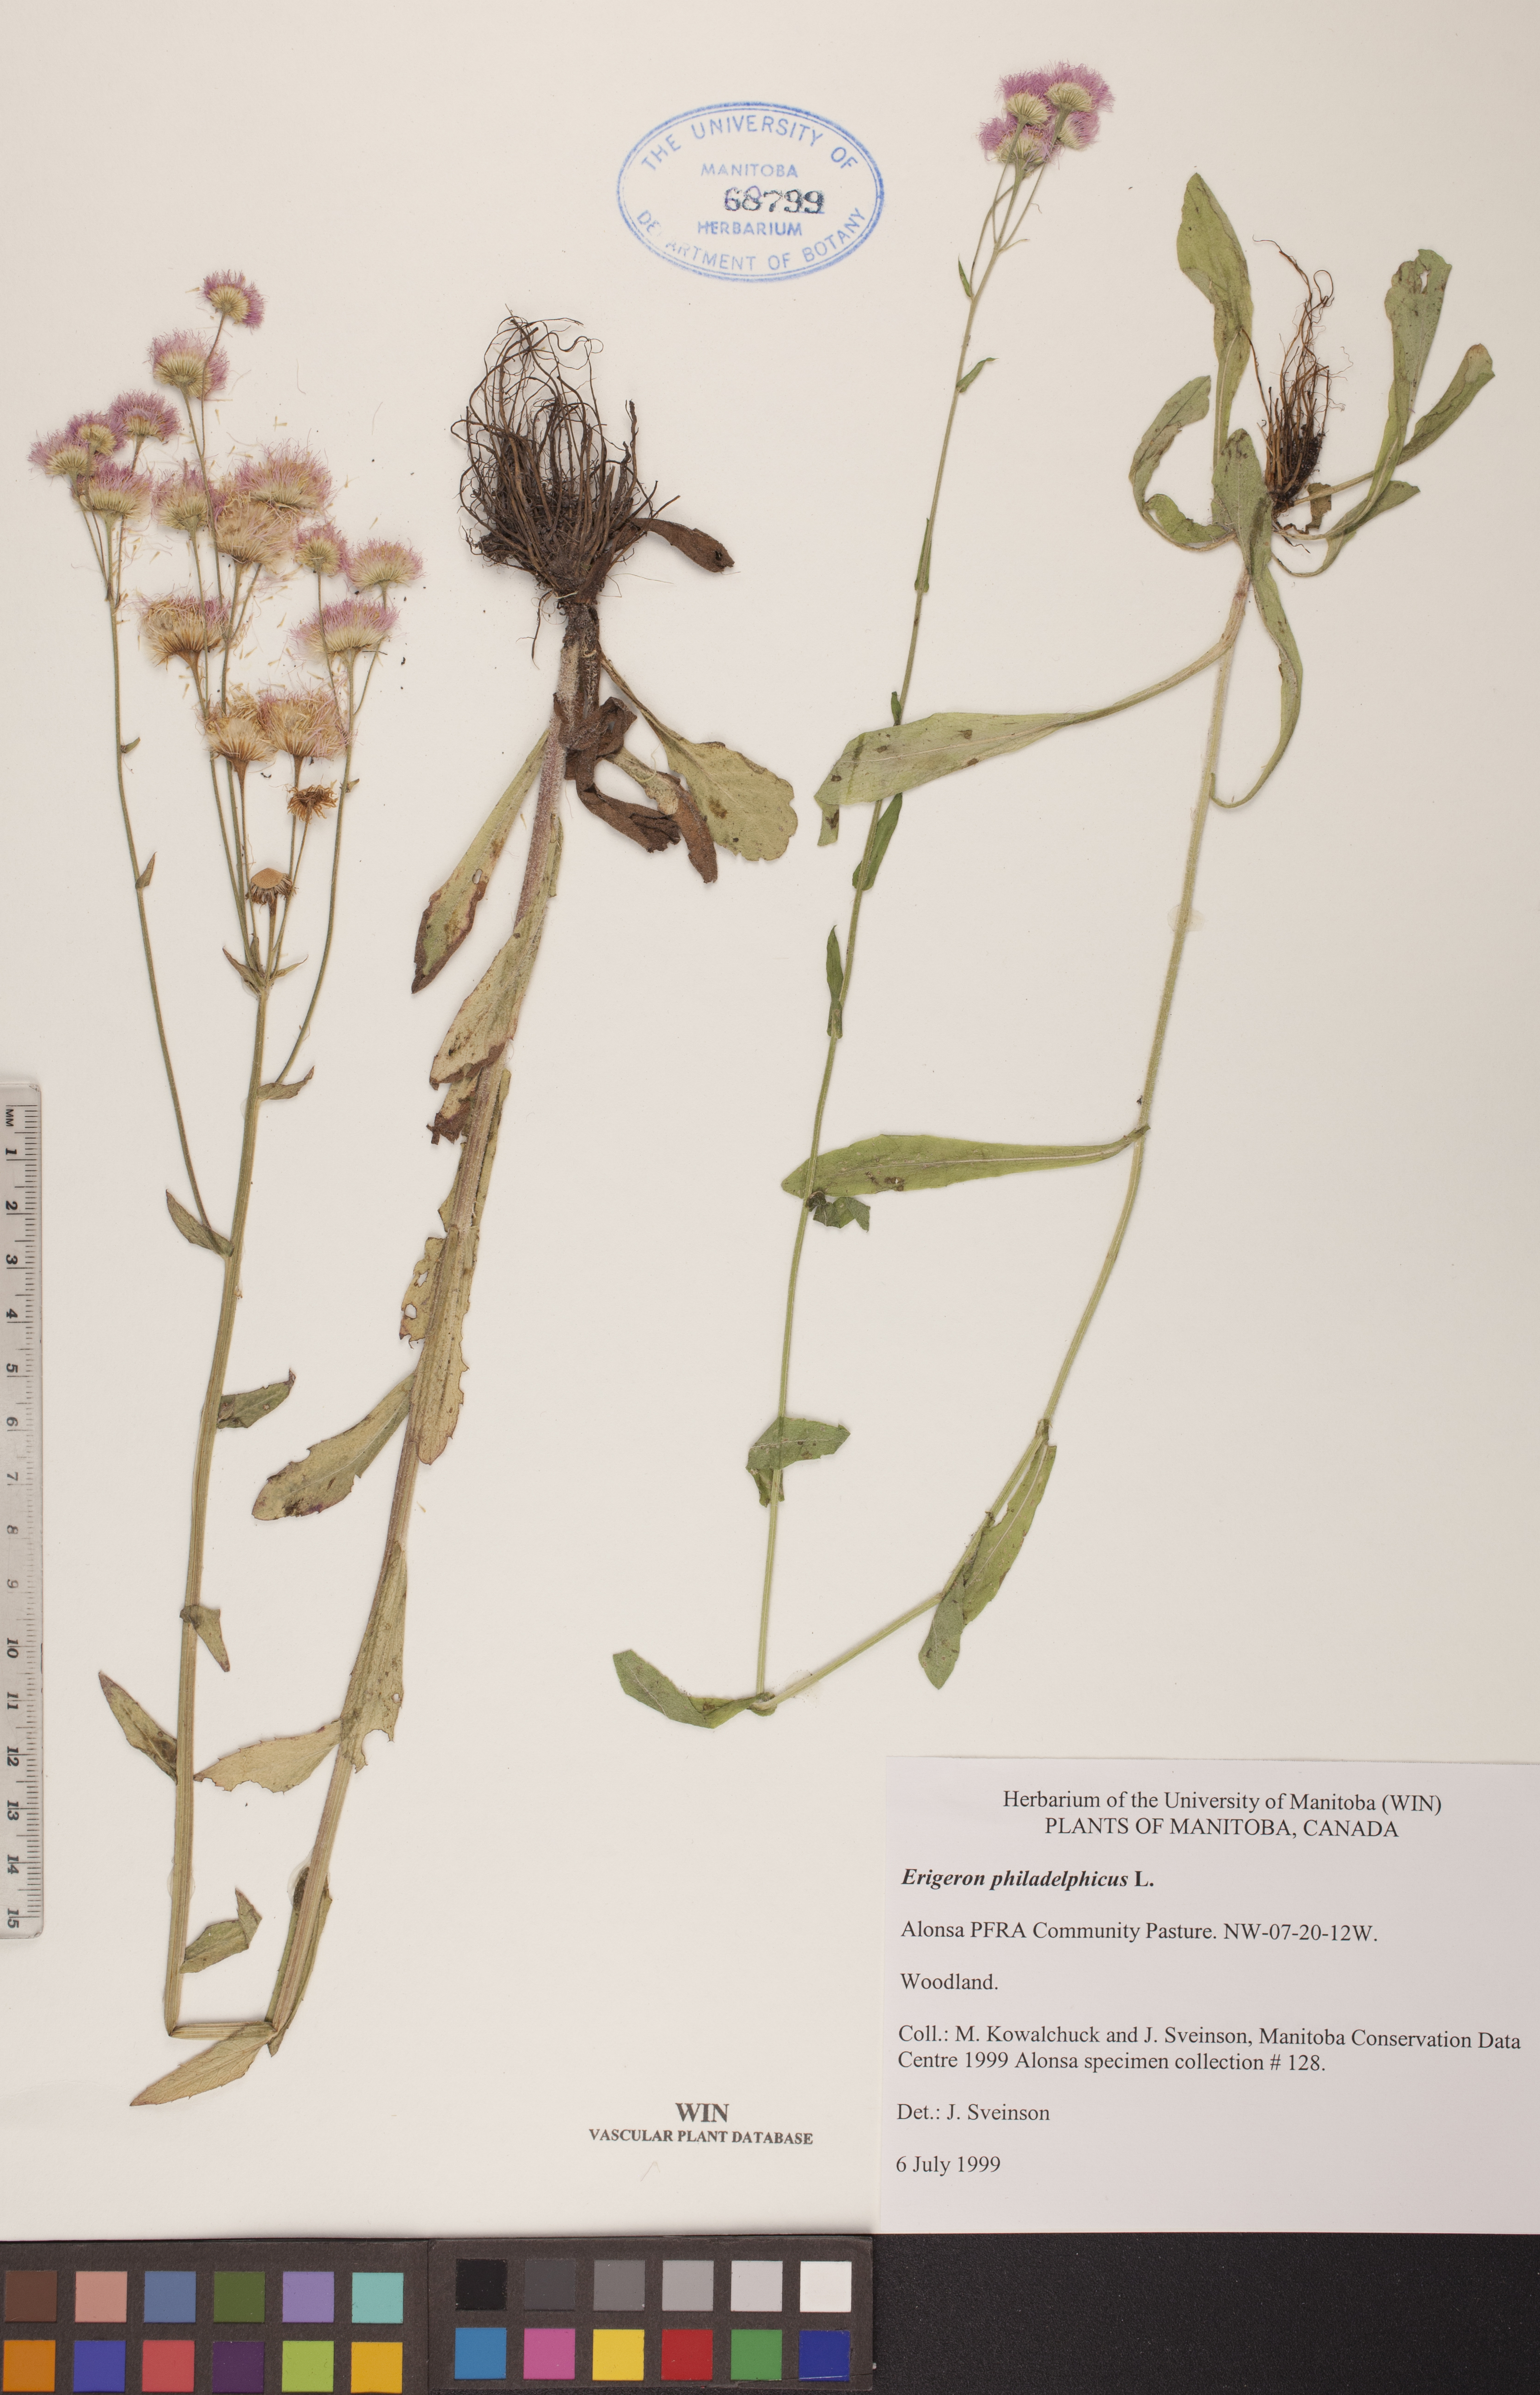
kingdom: Plantae
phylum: Tracheophyta
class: Magnoliopsida
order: Asterales
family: Asteraceae
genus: Erigeron
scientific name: Erigeron philadelphicus
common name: Robin's-plantain
